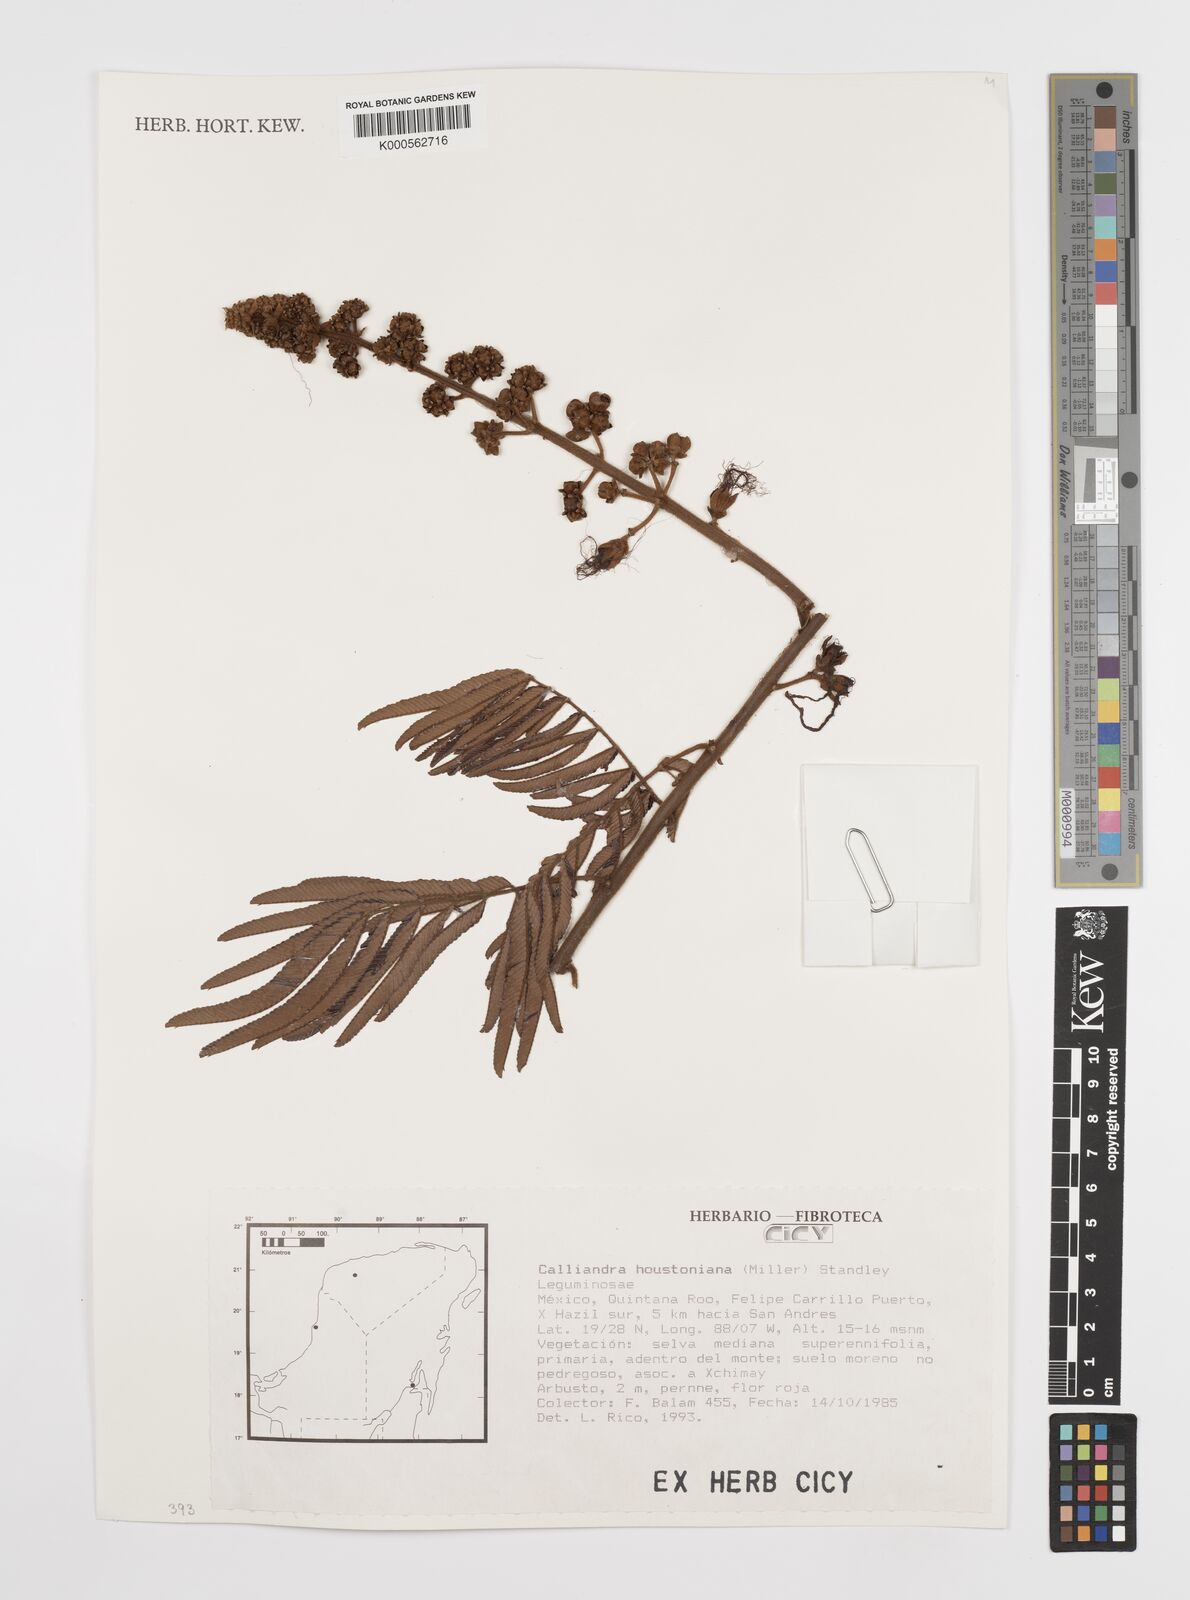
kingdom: Plantae
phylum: Tracheophyta
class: Magnoliopsida
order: Fabales
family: Fabaceae
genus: Calliandra
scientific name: Calliandra houstoniana
